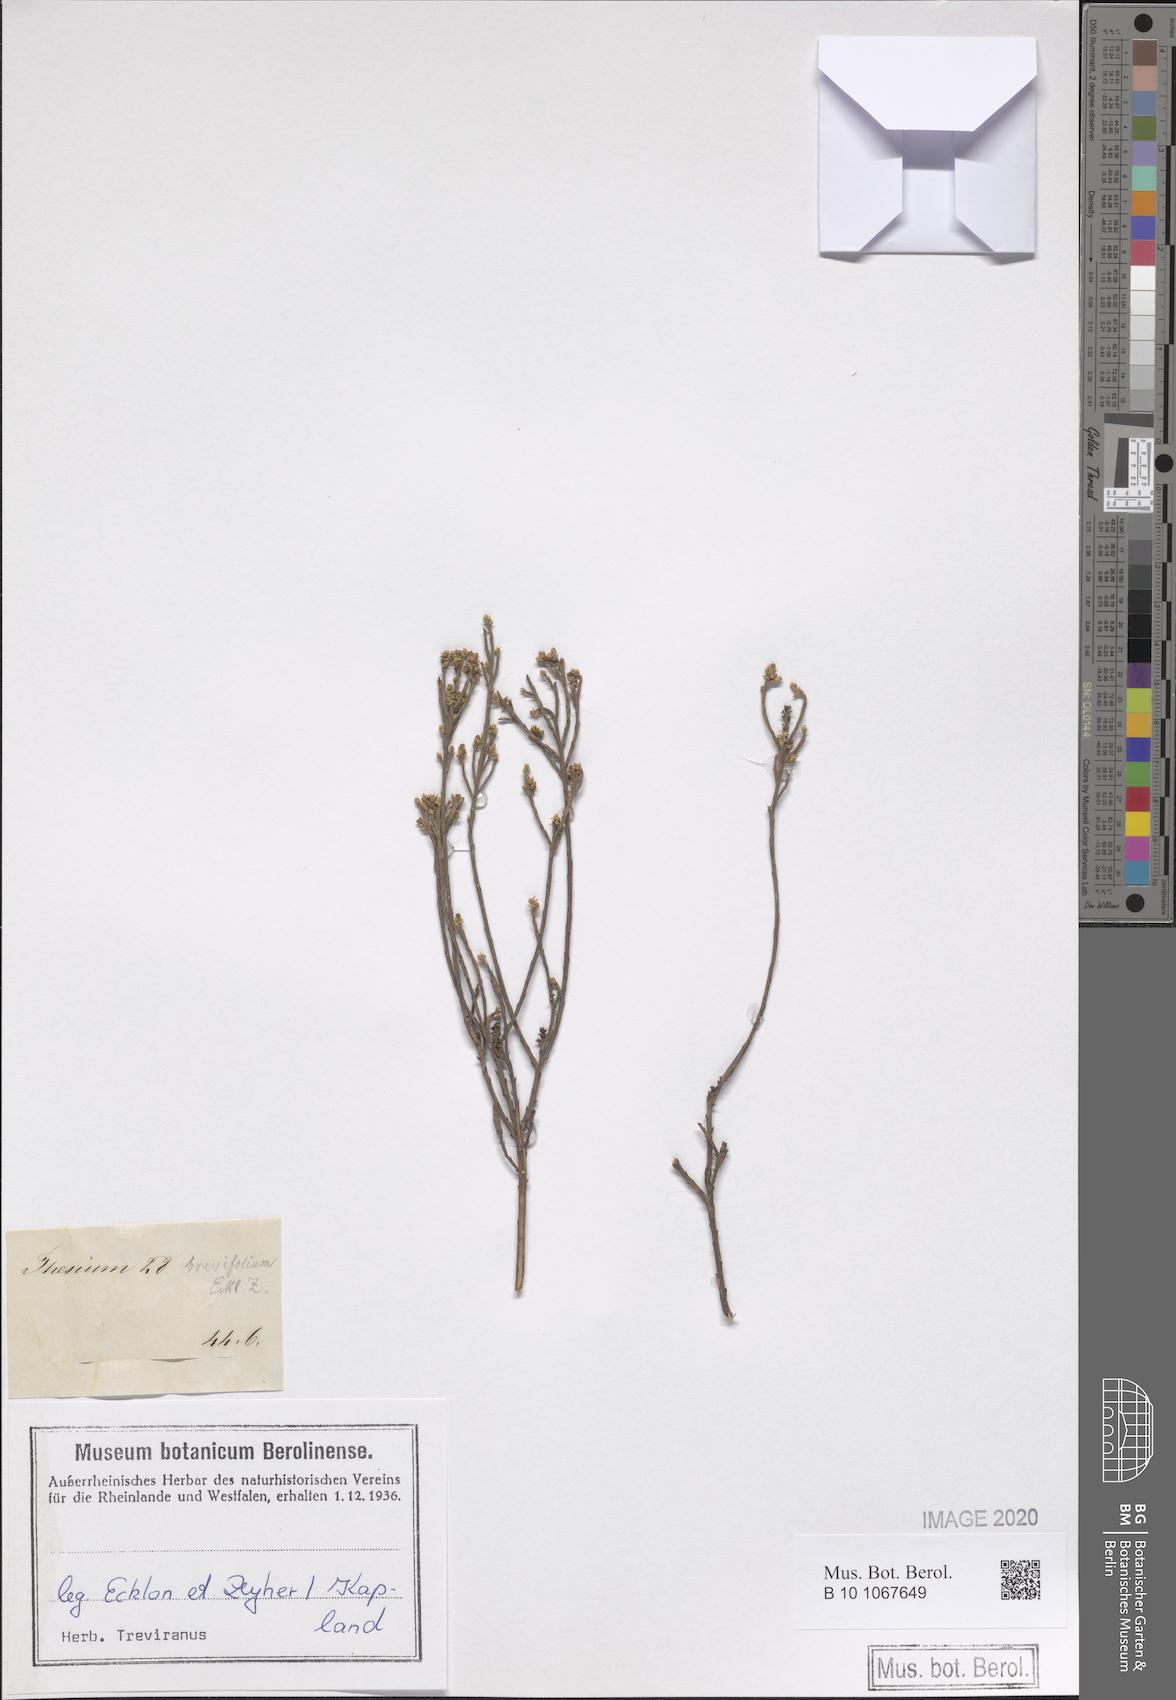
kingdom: Plantae
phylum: Tracheophyta
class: Magnoliopsida
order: Santalales
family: Thesiaceae
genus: Thesium
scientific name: Thesium leptocaule
